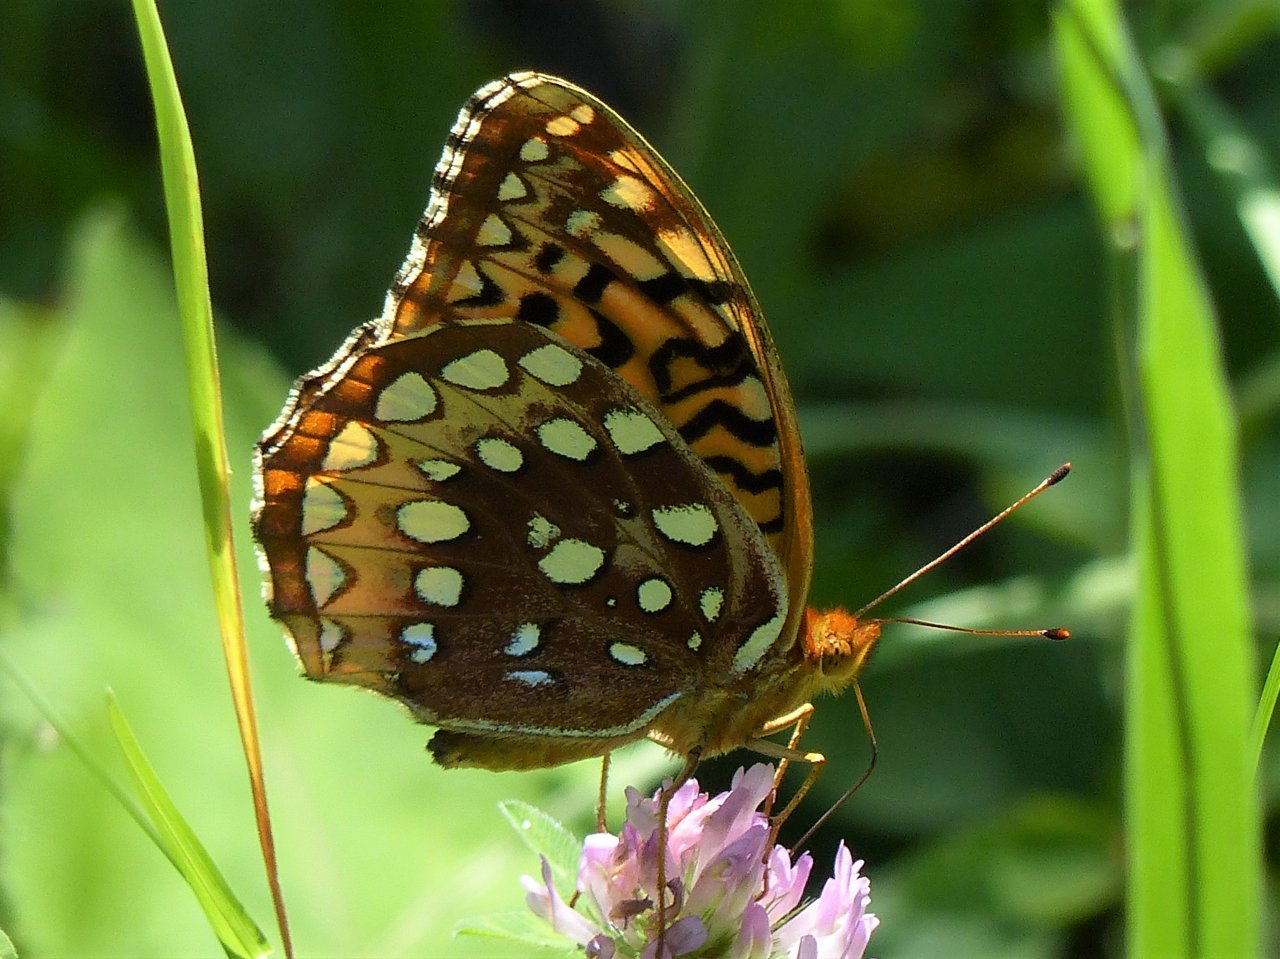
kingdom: Animalia
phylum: Arthropoda
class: Insecta
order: Lepidoptera
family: Nymphalidae
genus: Speyeria
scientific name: Speyeria cybele
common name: Great Spangled Fritillary
